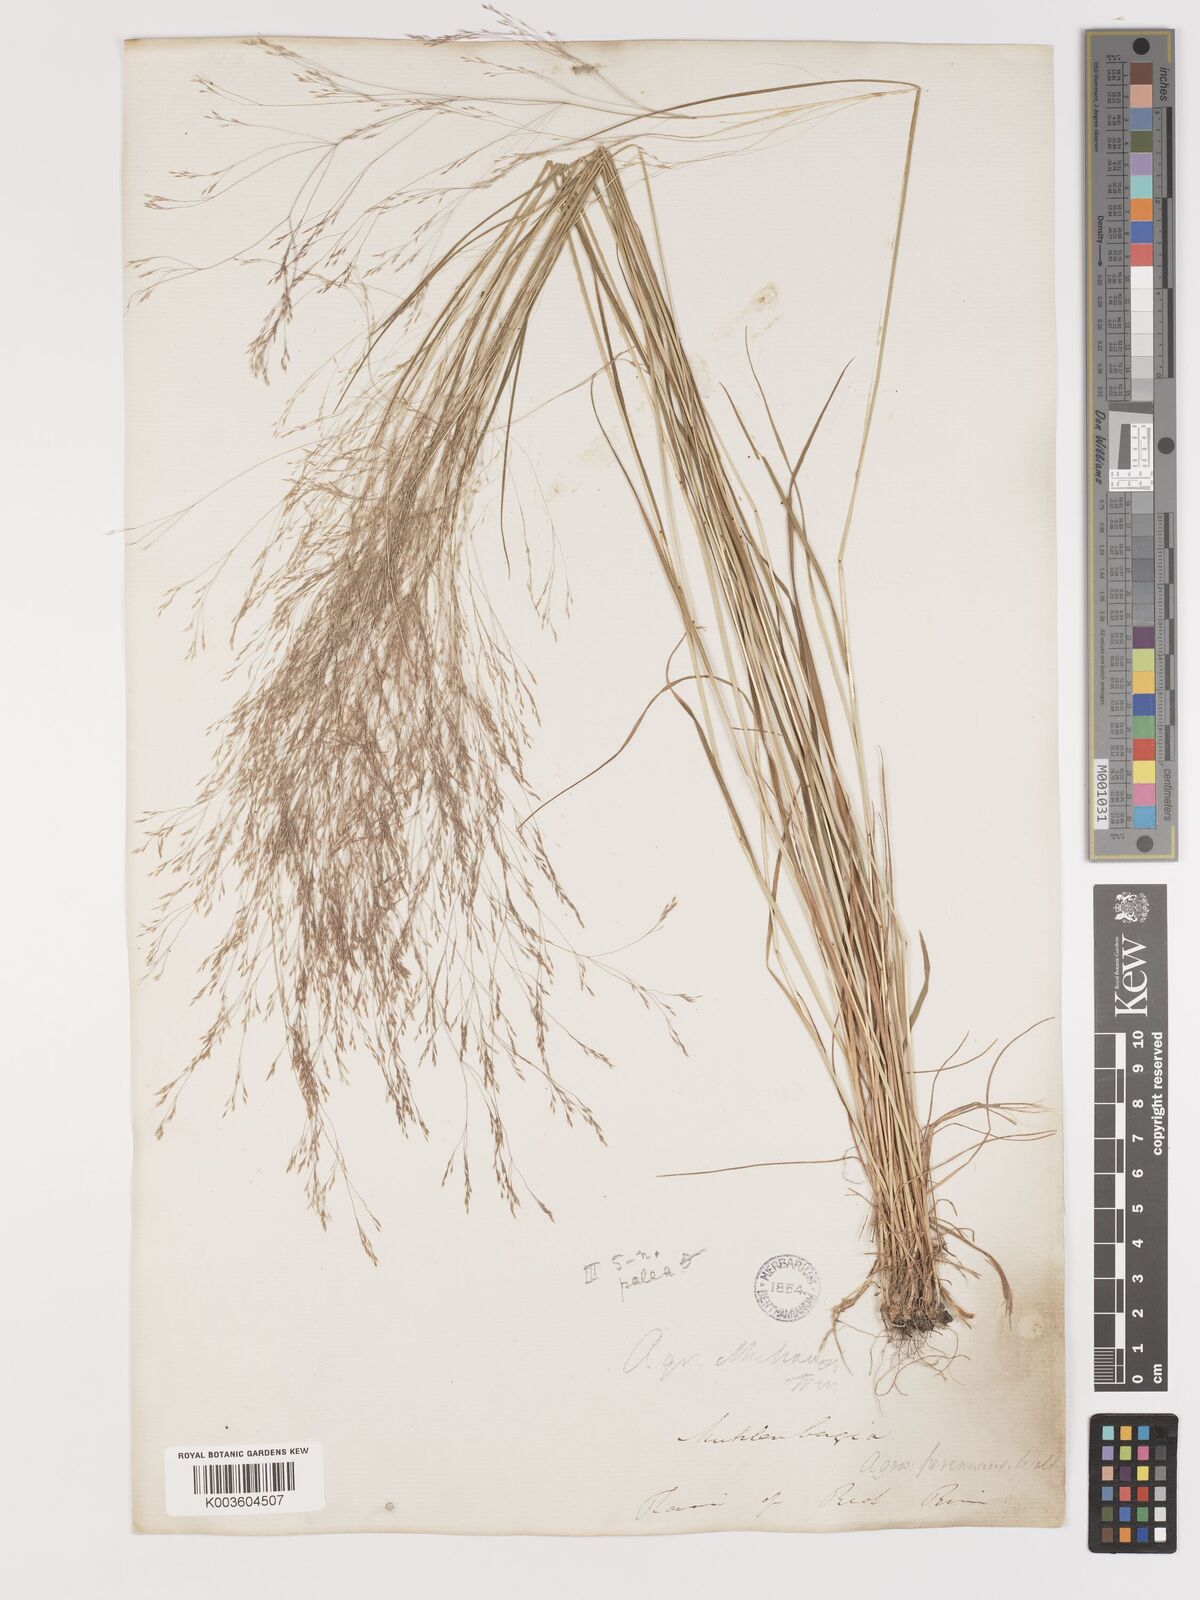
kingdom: Plantae
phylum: Tracheophyta
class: Liliopsida
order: Poales
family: Poaceae
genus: Agrostis
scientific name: Agrostis hyemalis
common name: Small bent
